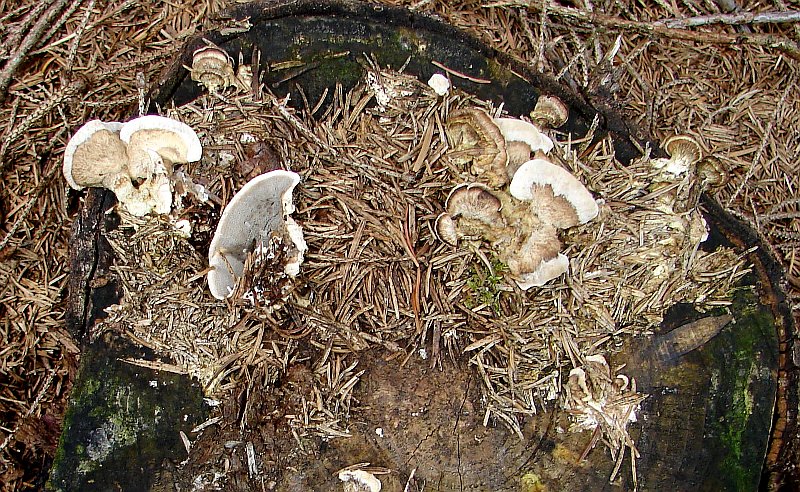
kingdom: Fungi
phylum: Basidiomycota
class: Agaricomycetes
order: Polyporales
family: Phanerochaetaceae
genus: Bjerkandera
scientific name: Bjerkandera adusta
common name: sveden sodporesvamp
